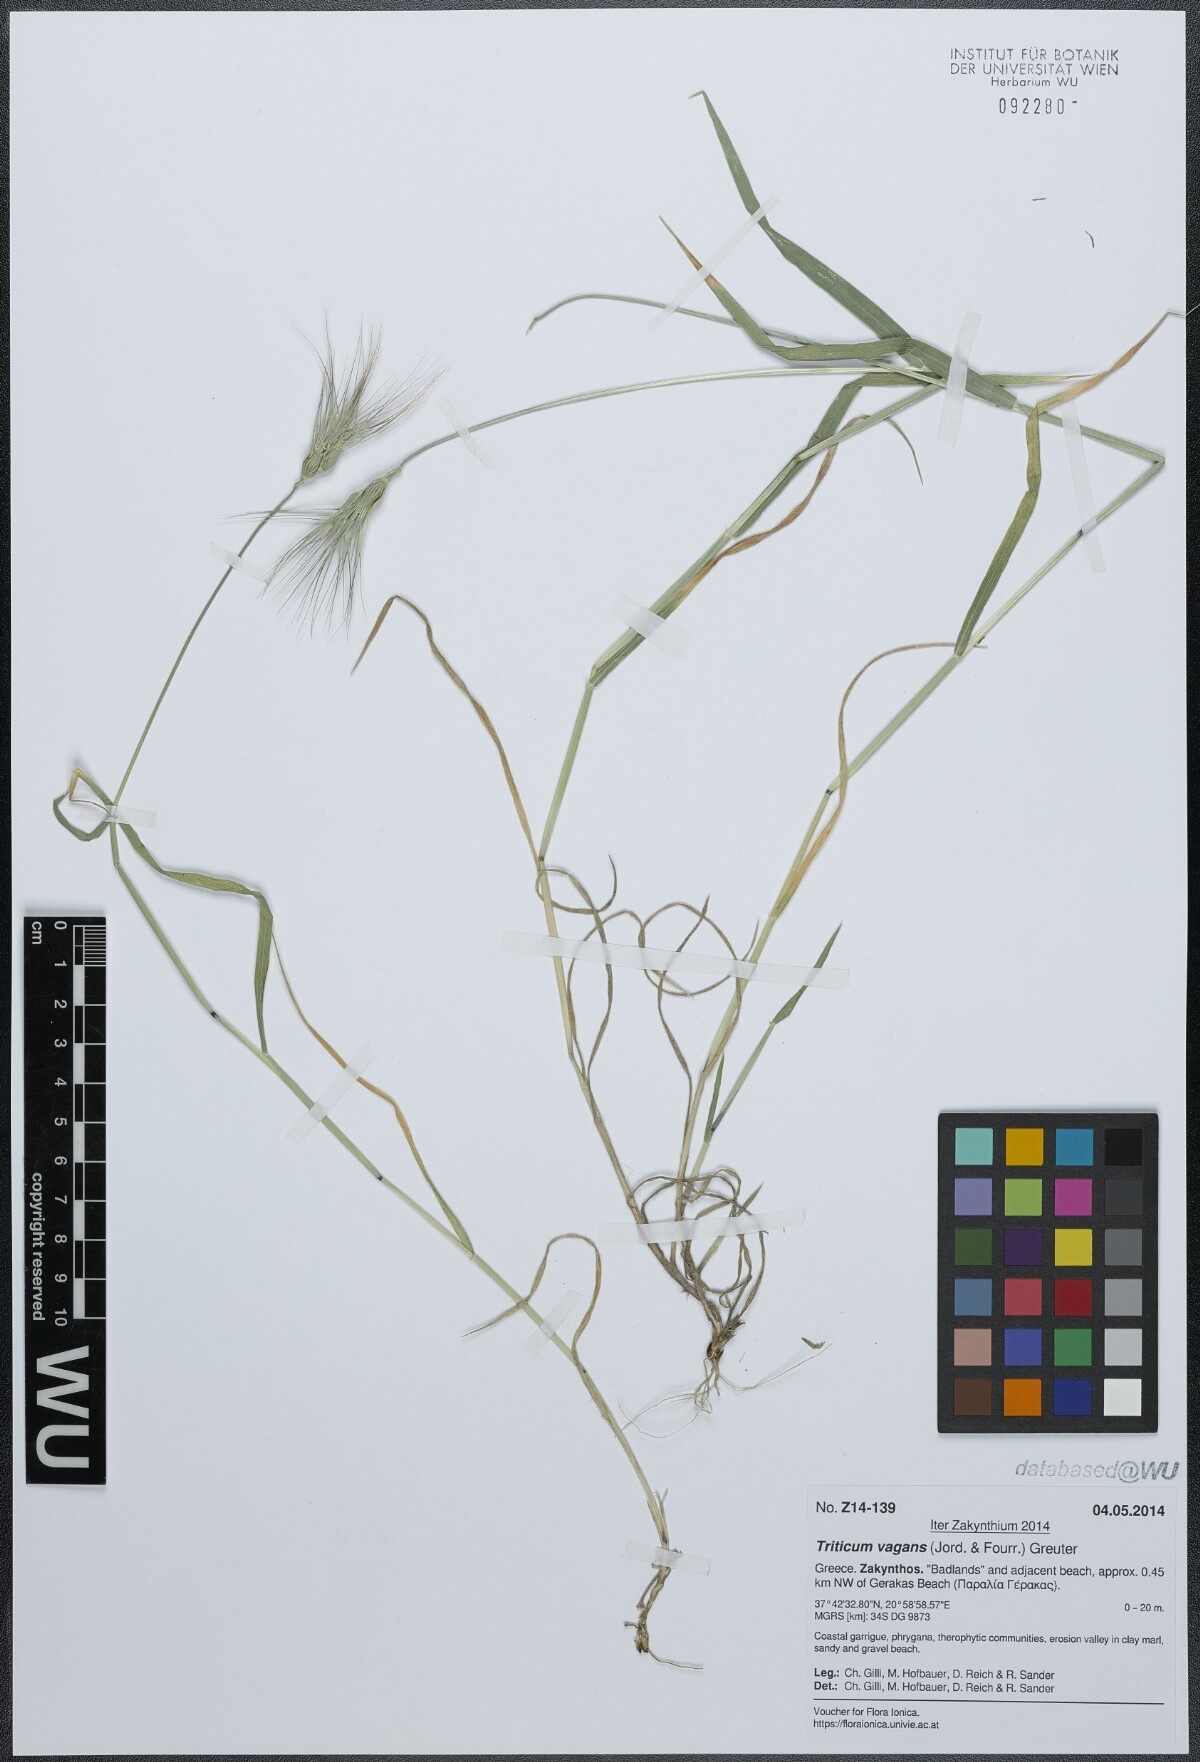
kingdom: Plantae
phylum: Tracheophyta
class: Liliopsida
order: Poales
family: Poaceae
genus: Aegilops
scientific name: Aegilops geniculata
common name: Ovate goat grass
